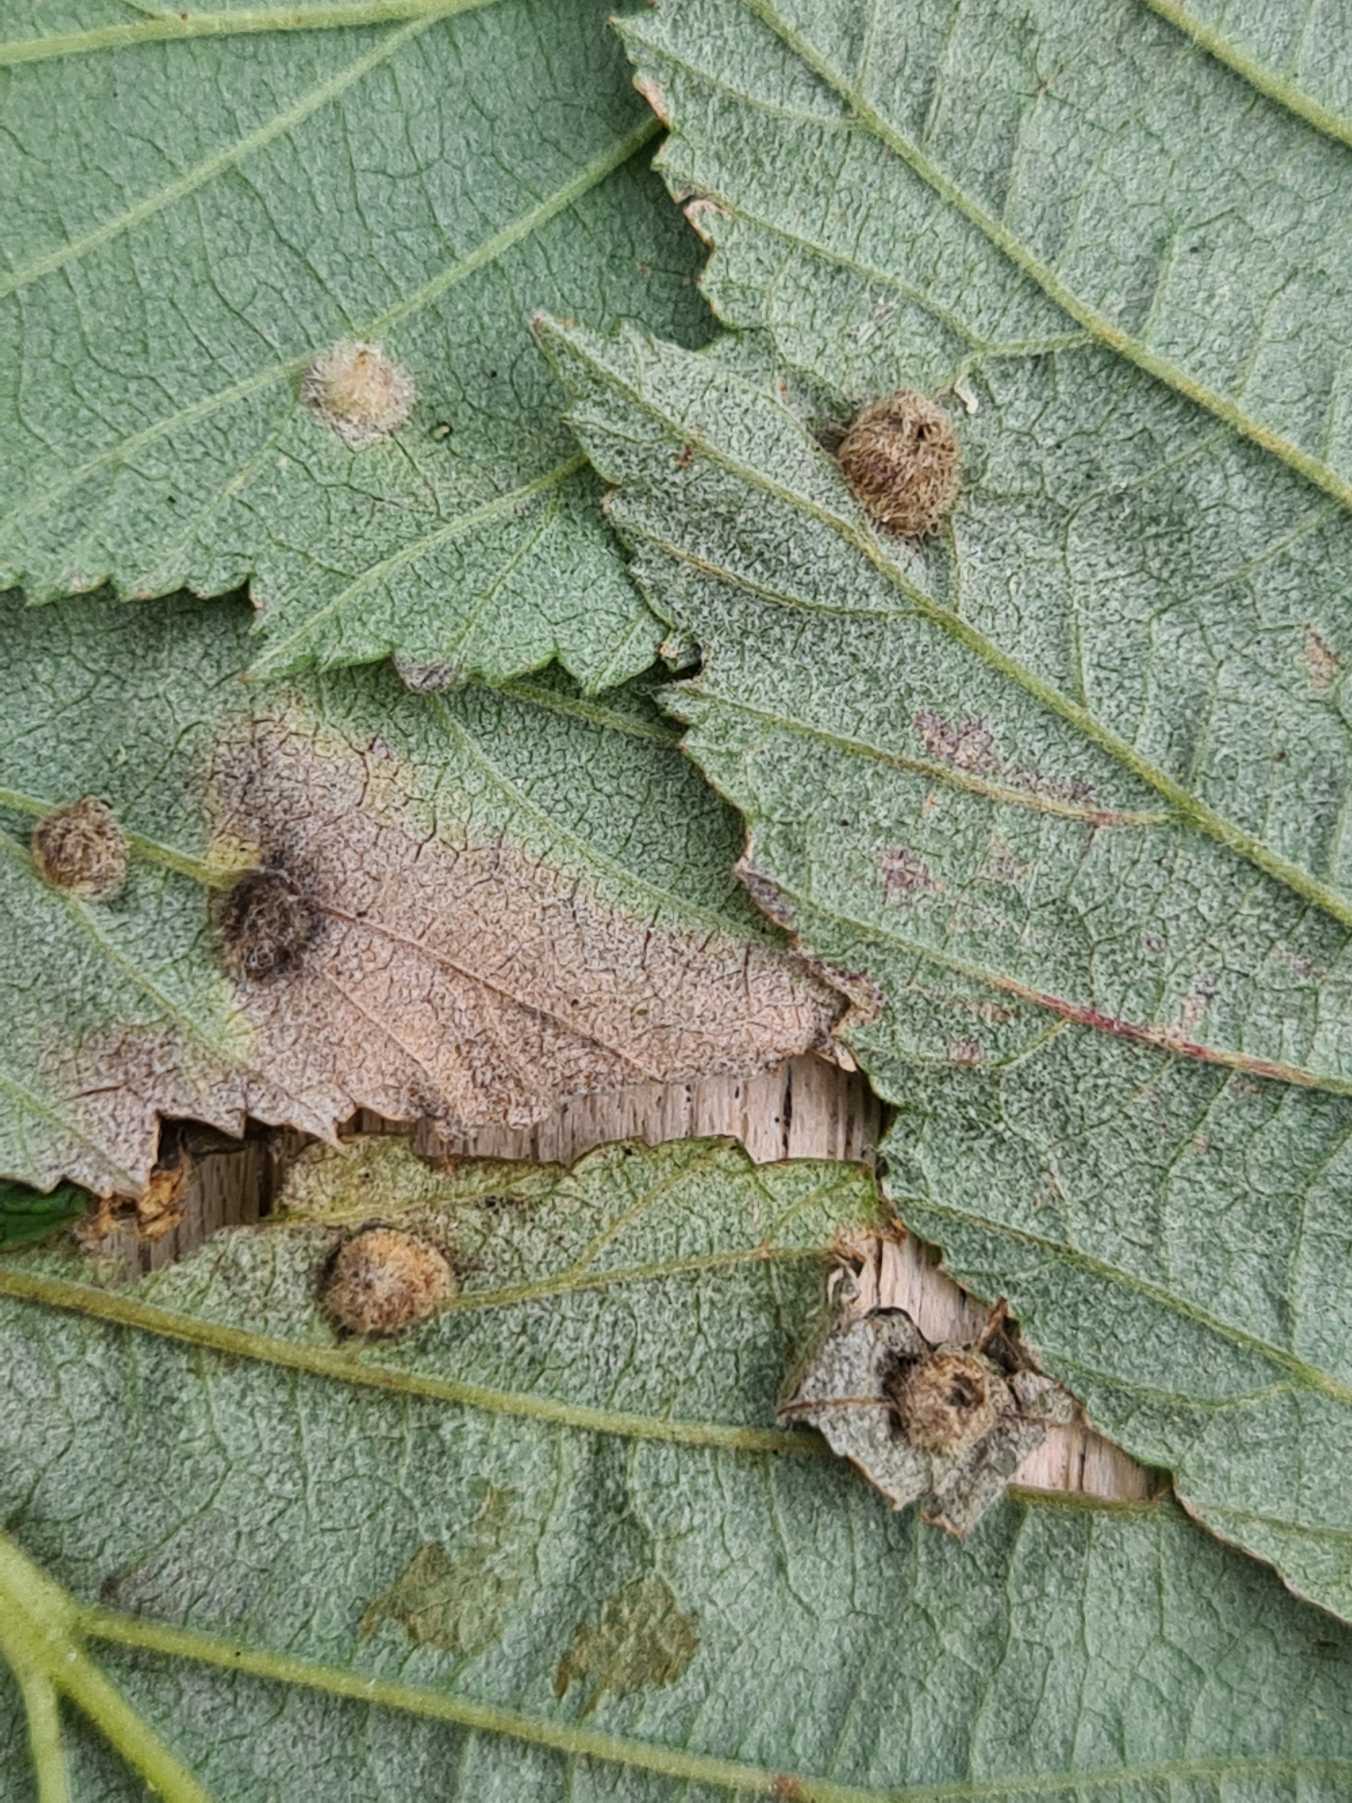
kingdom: Animalia
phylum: Arthropoda
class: Insecta
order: Diptera
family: Cecidomyiidae
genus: Dasineura
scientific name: Dasineura ulmaria
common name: Mjødurtgalmyg
